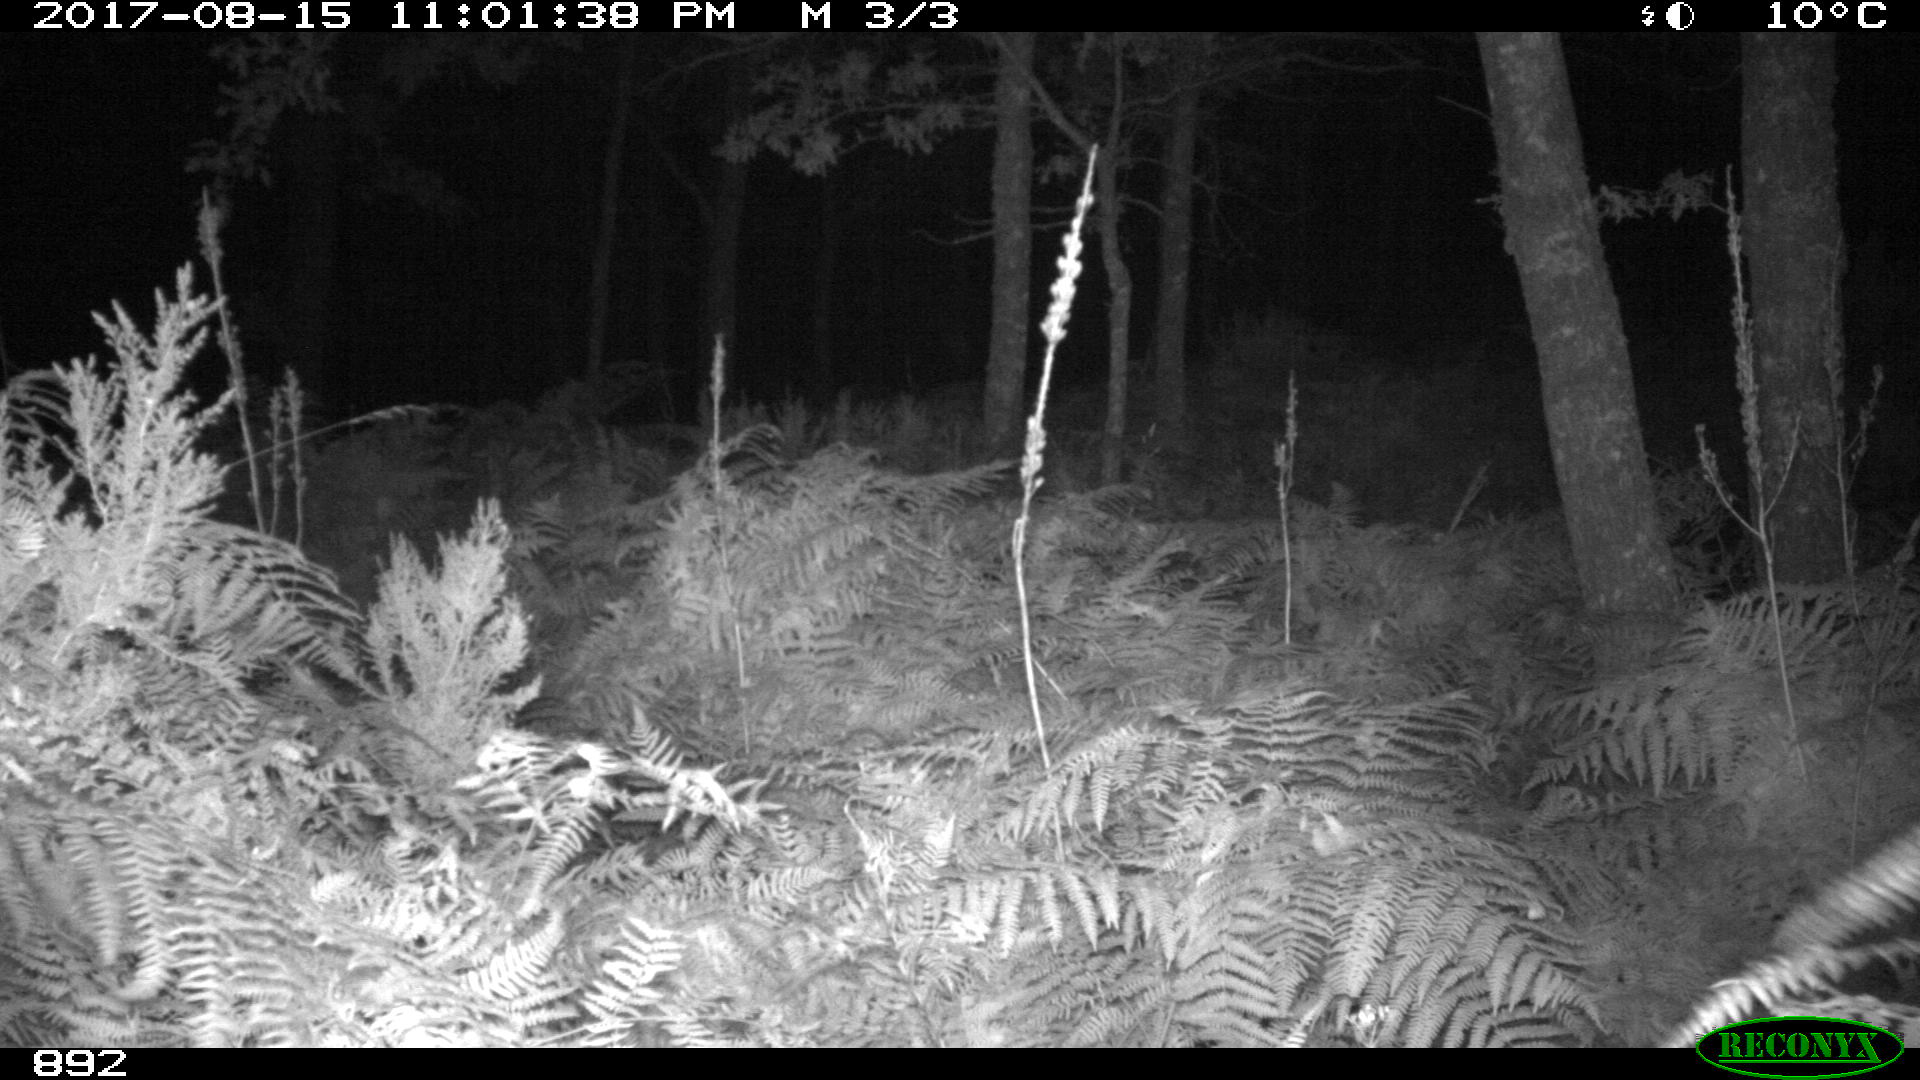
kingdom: Animalia
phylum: Chordata
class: Mammalia
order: Perissodactyla
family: Equidae
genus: Equus
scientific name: Equus caballus
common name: Horse
